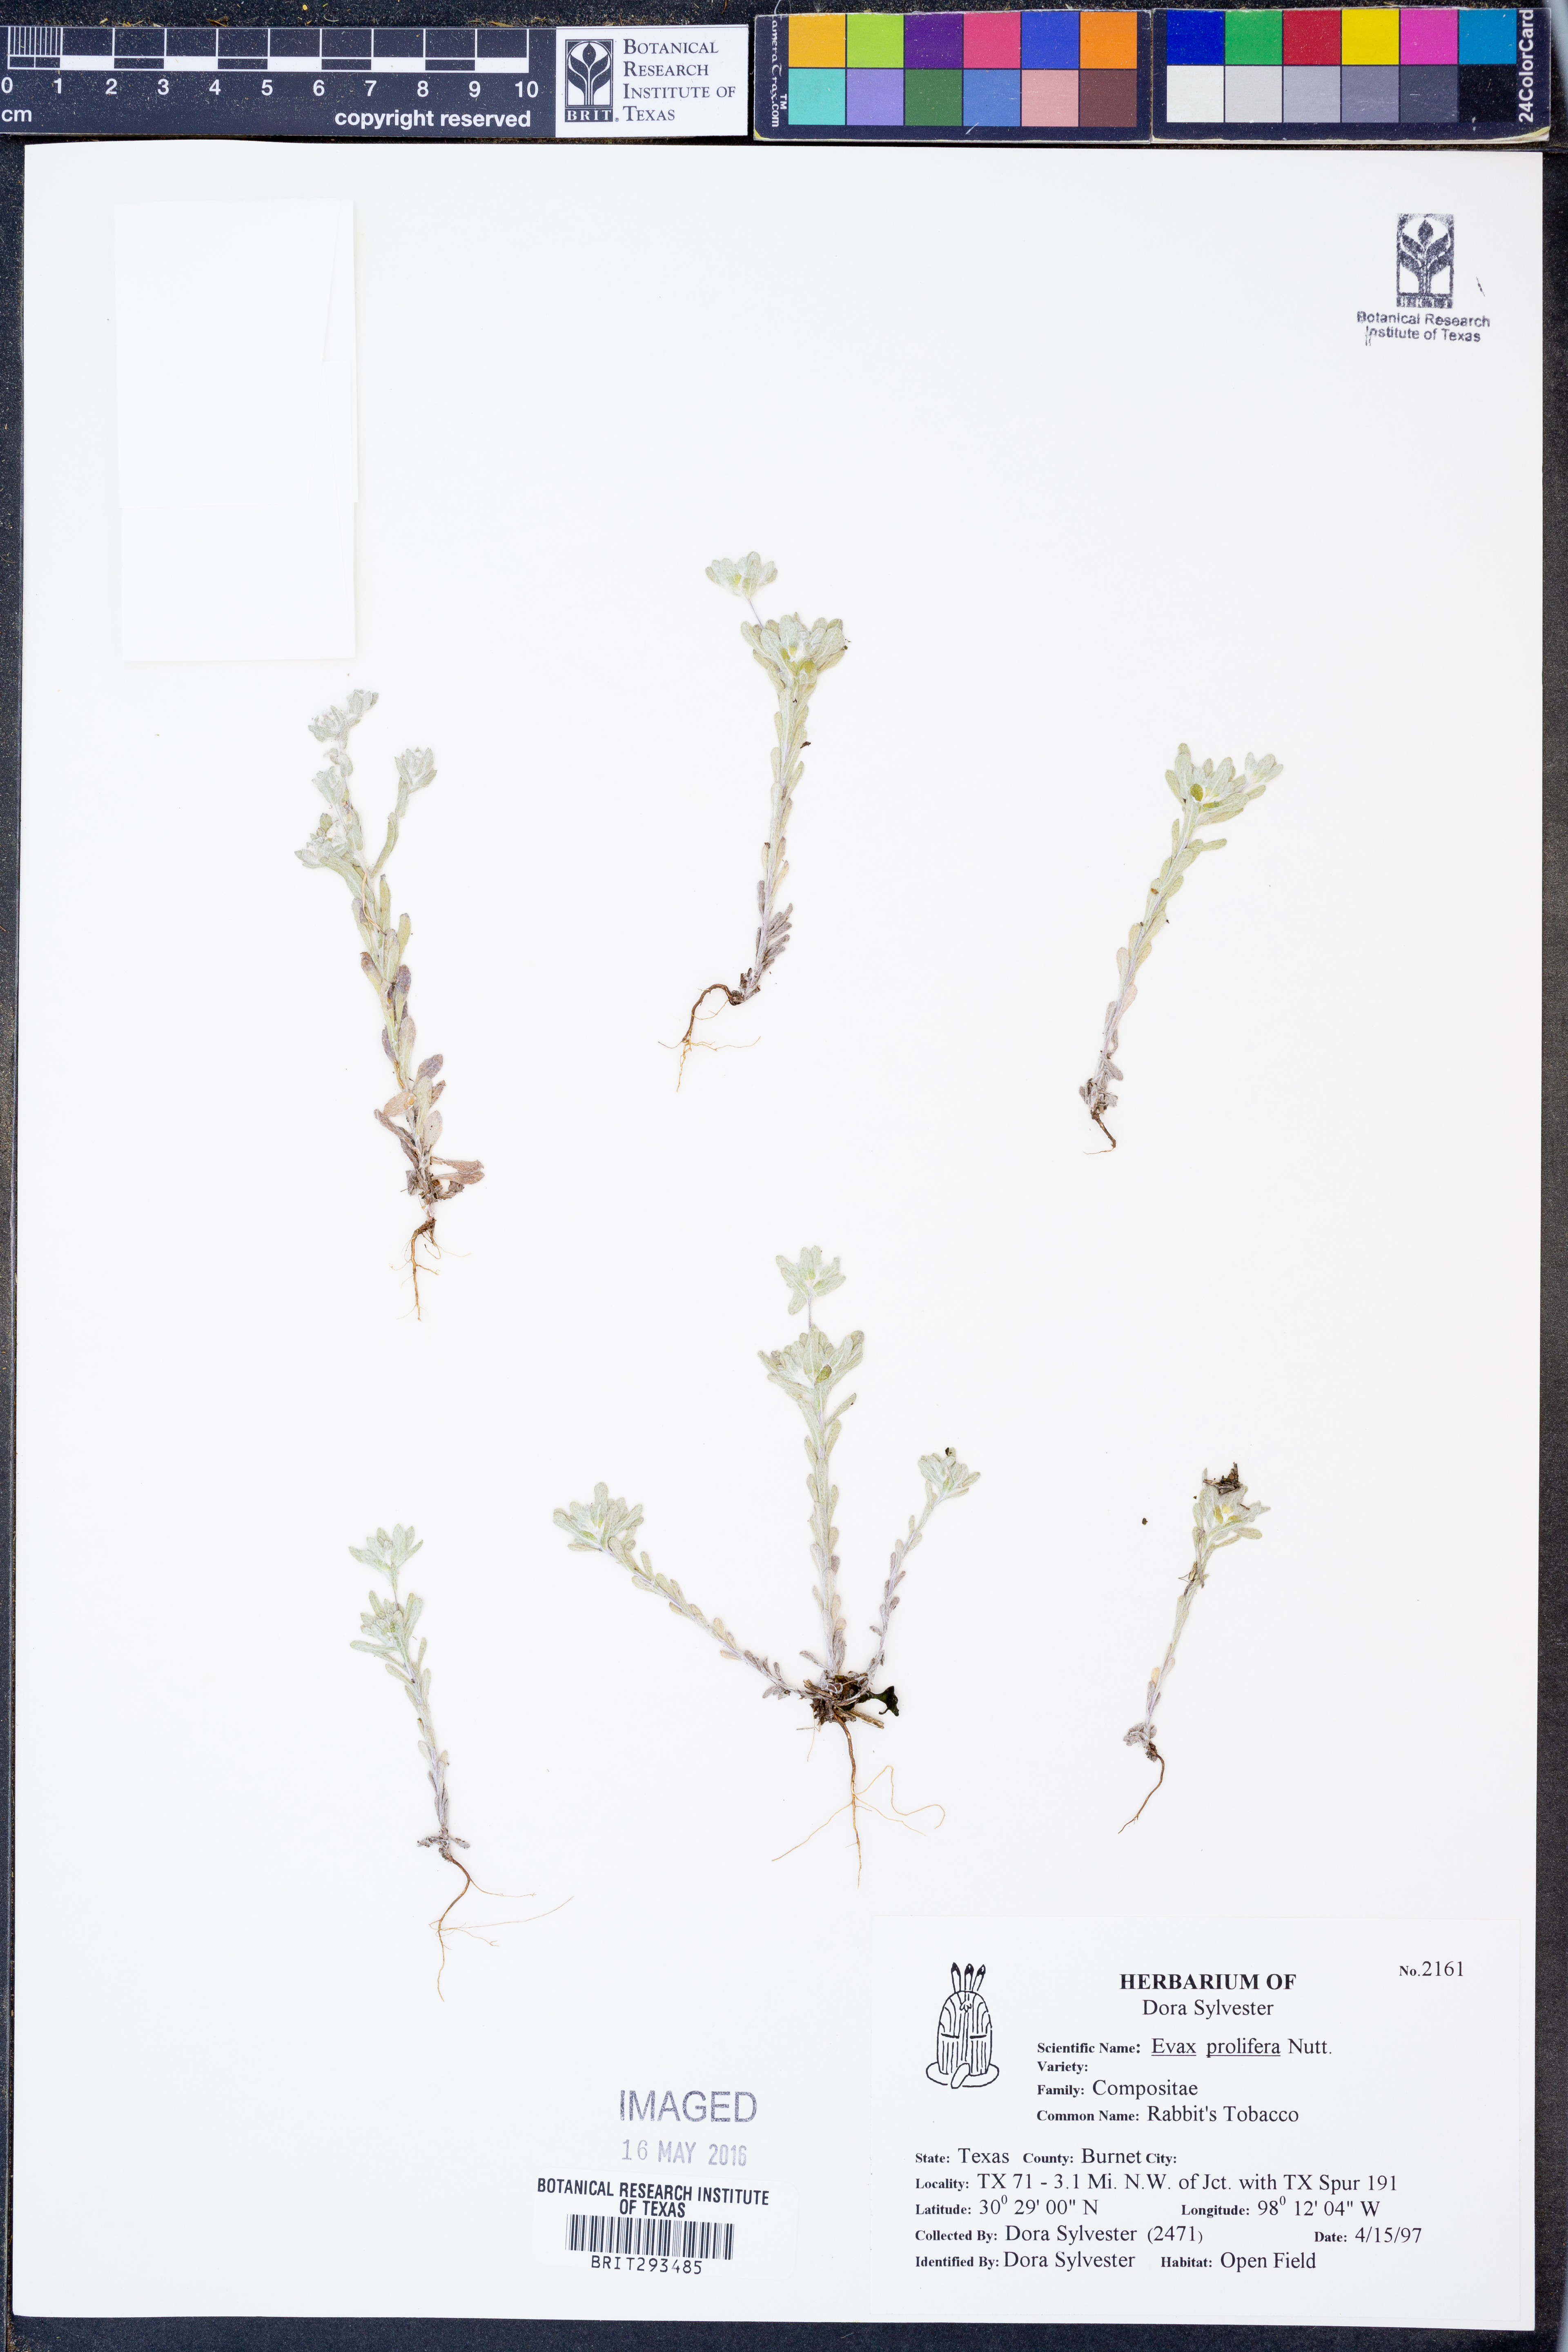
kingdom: Plantae
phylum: Tracheophyta
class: Magnoliopsida
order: Asterales
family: Asteraceae
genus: Diaperia
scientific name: Diaperia prolifera
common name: Big-head rabbit-tobacco
